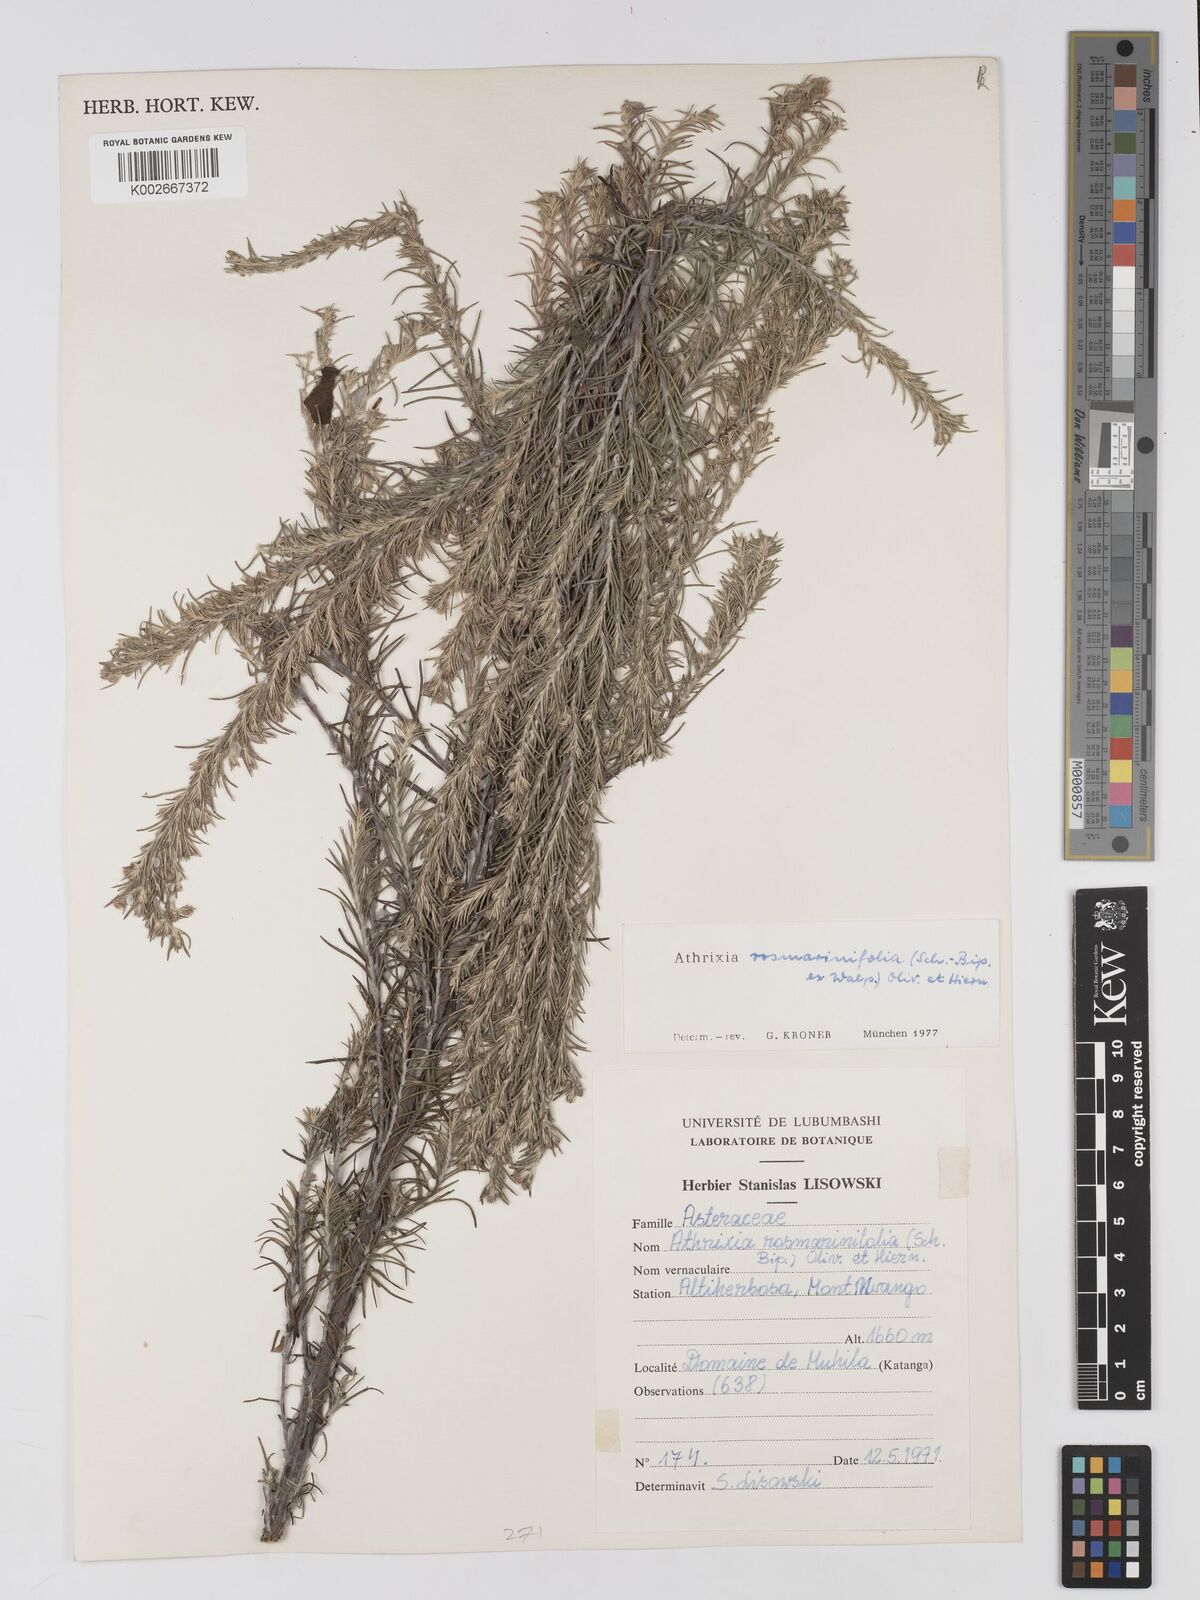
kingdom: Plantae
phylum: Tracheophyta
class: Magnoliopsida
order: Asterales
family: Asteraceae
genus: Athrixia
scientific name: Athrixia
